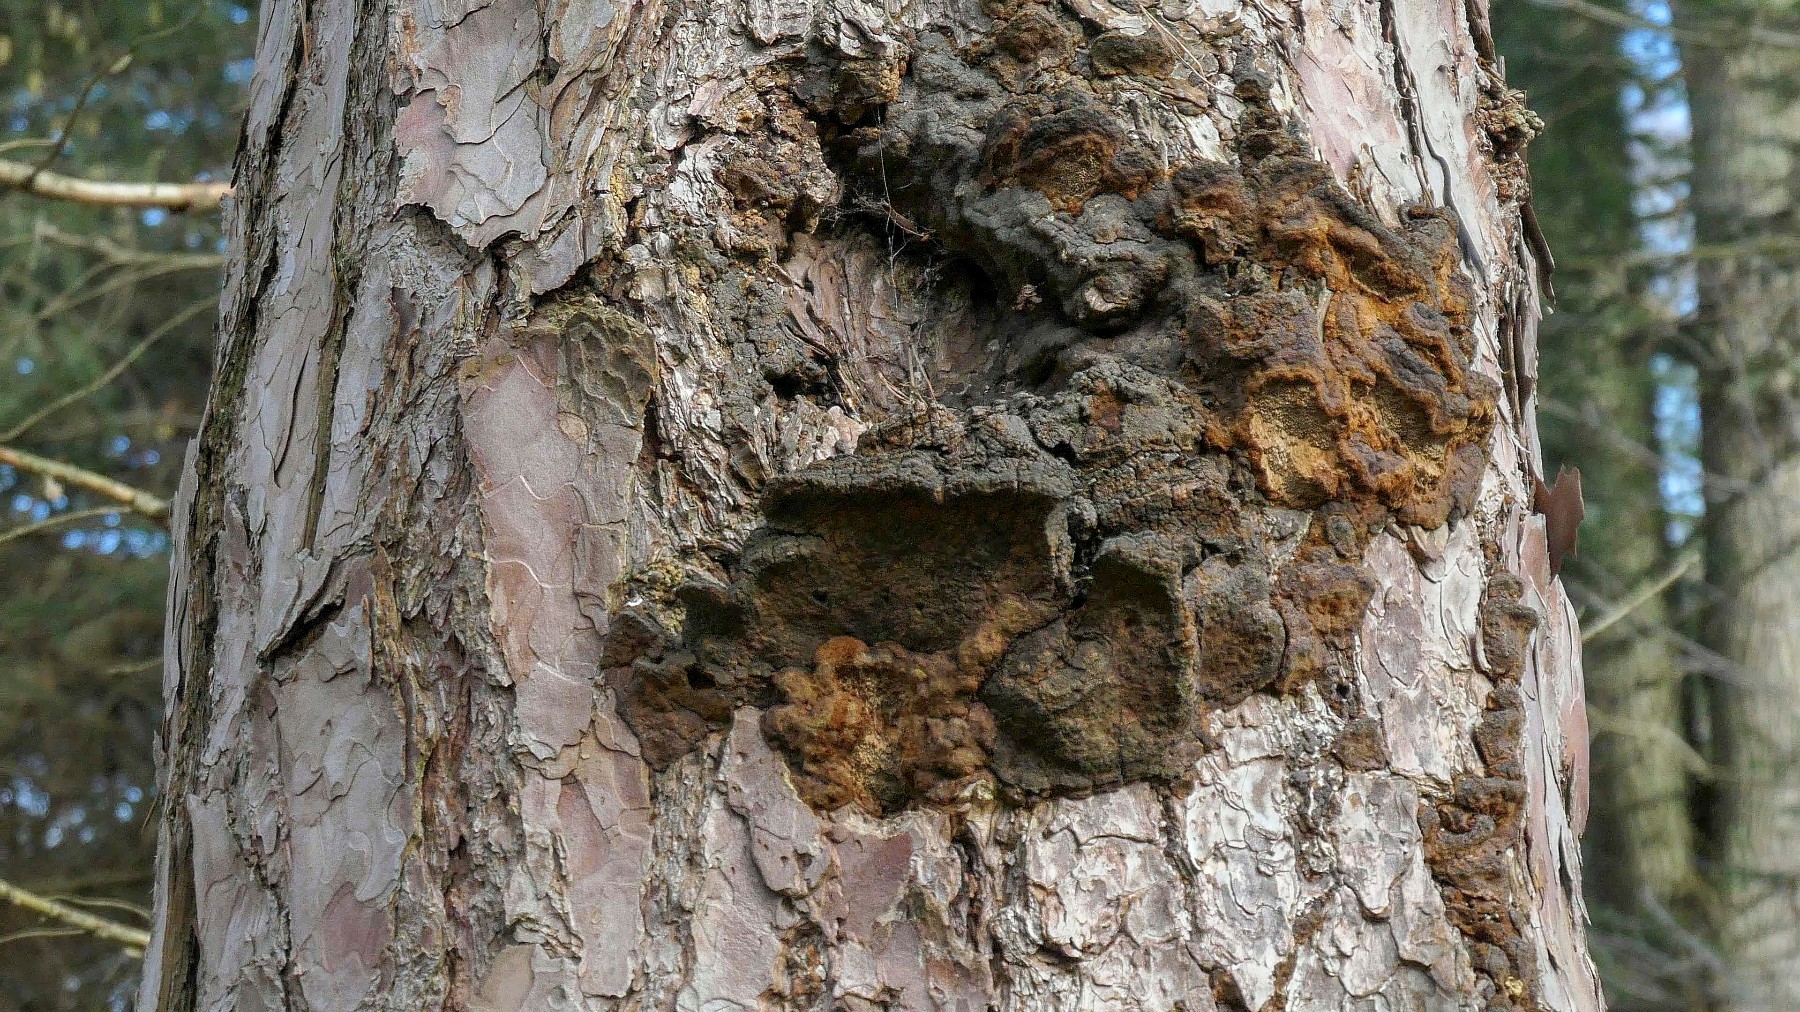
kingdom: Fungi
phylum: Basidiomycota
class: Agaricomycetes
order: Hymenochaetales
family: Hymenochaetaceae
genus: Porodaedalea
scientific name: Porodaedalea pini
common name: fyrre-ildporesvamp
